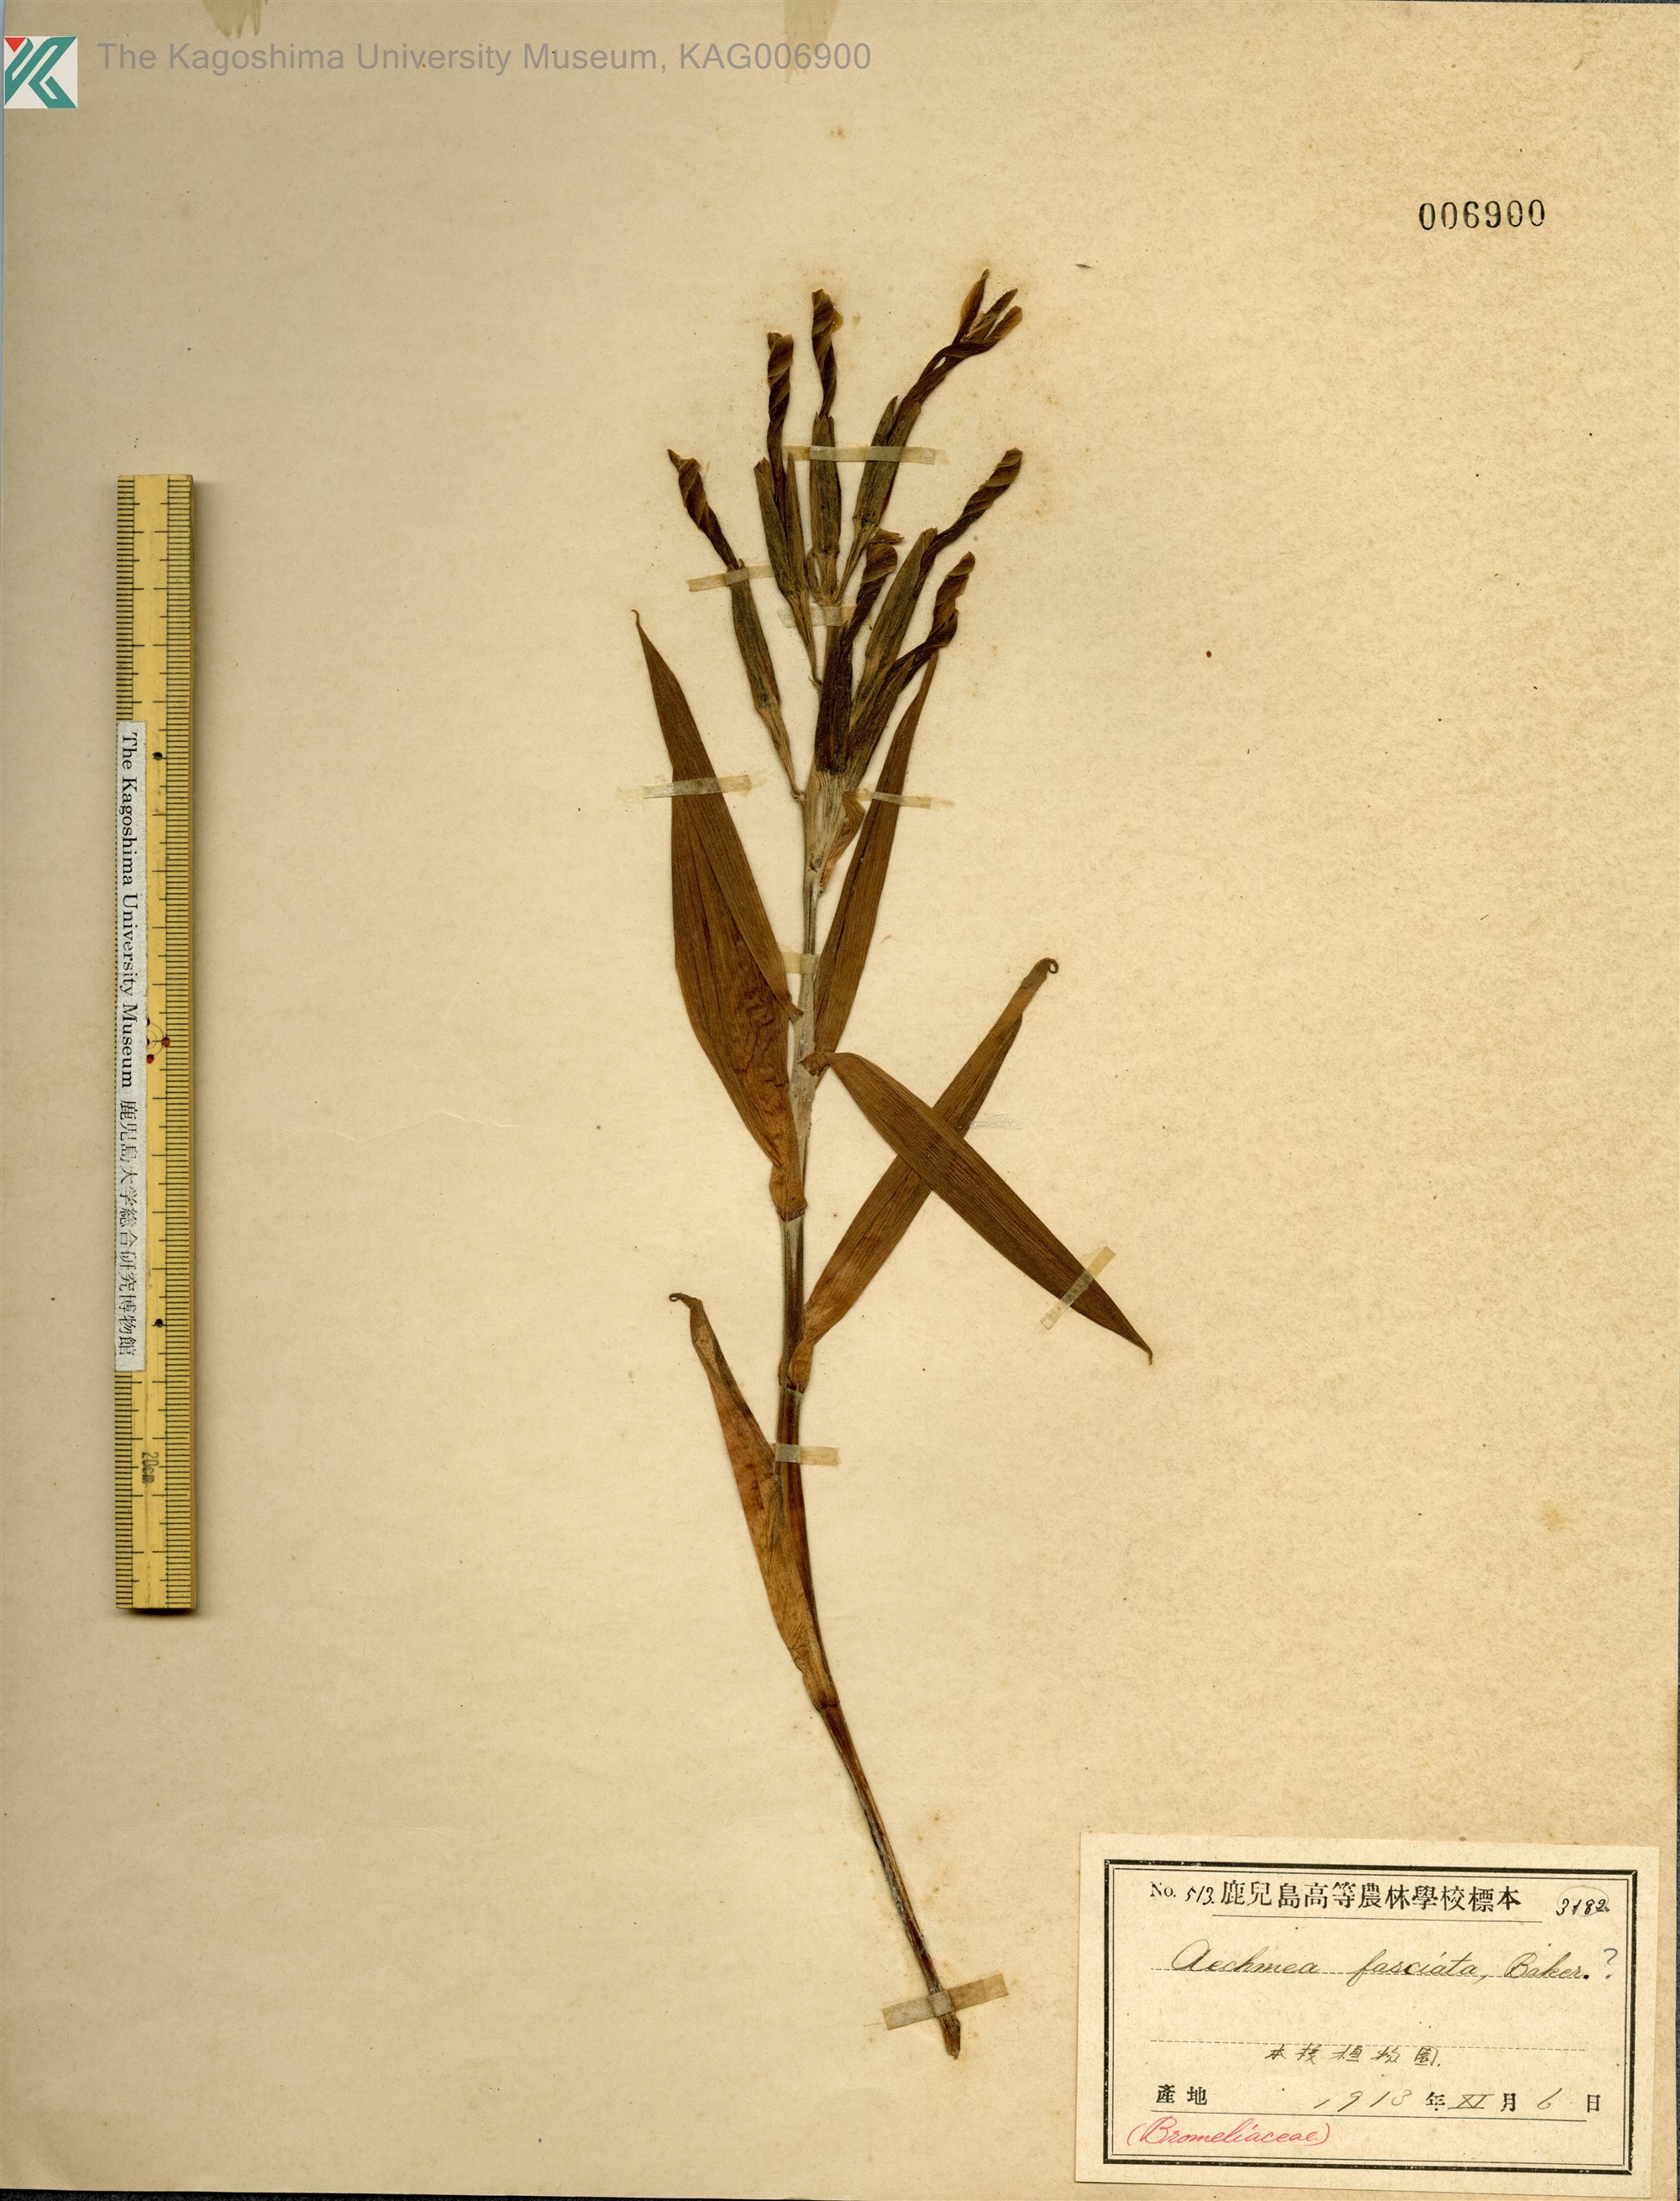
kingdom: Plantae
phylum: Tracheophyta
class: Liliopsida
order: Poales
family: Bromeliaceae
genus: Aechmea
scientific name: Aechmea fasciata
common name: Urnplant
